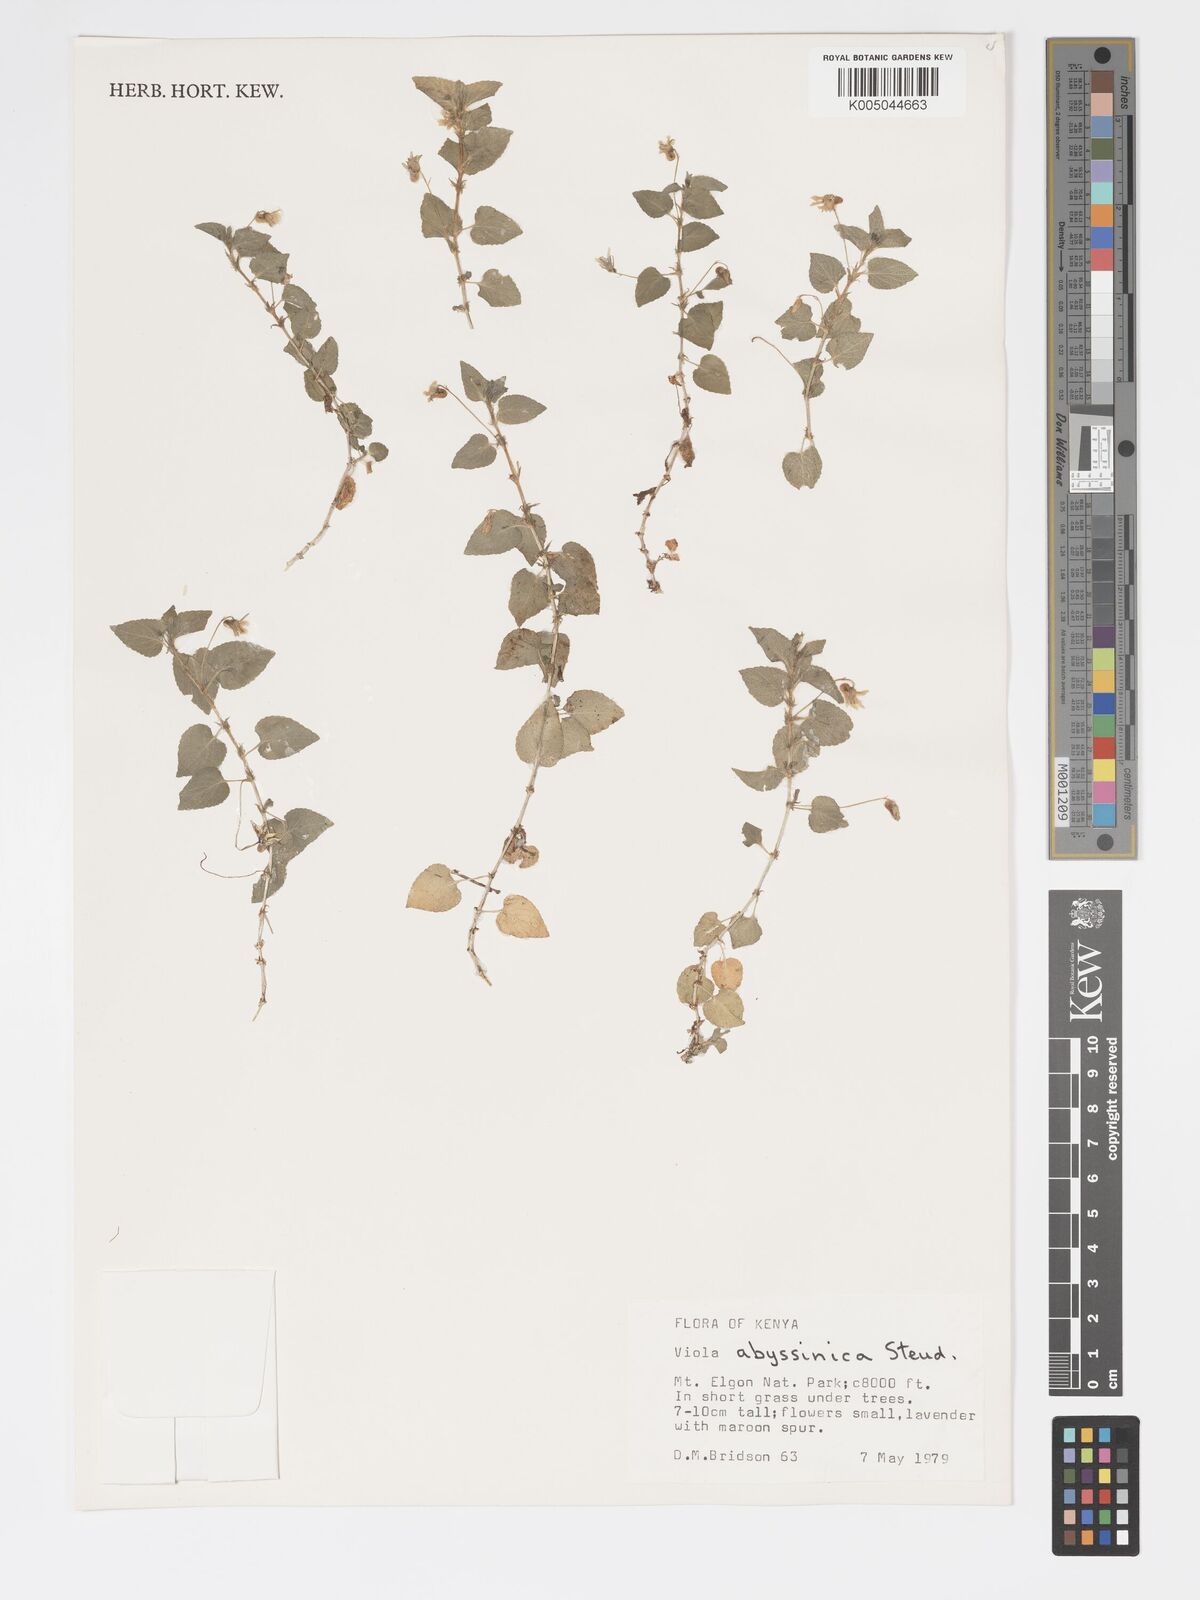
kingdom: Plantae
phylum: Tracheophyta
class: Magnoliopsida
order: Malpighiales
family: Violaceae
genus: Viola
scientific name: Viola abyssinica
